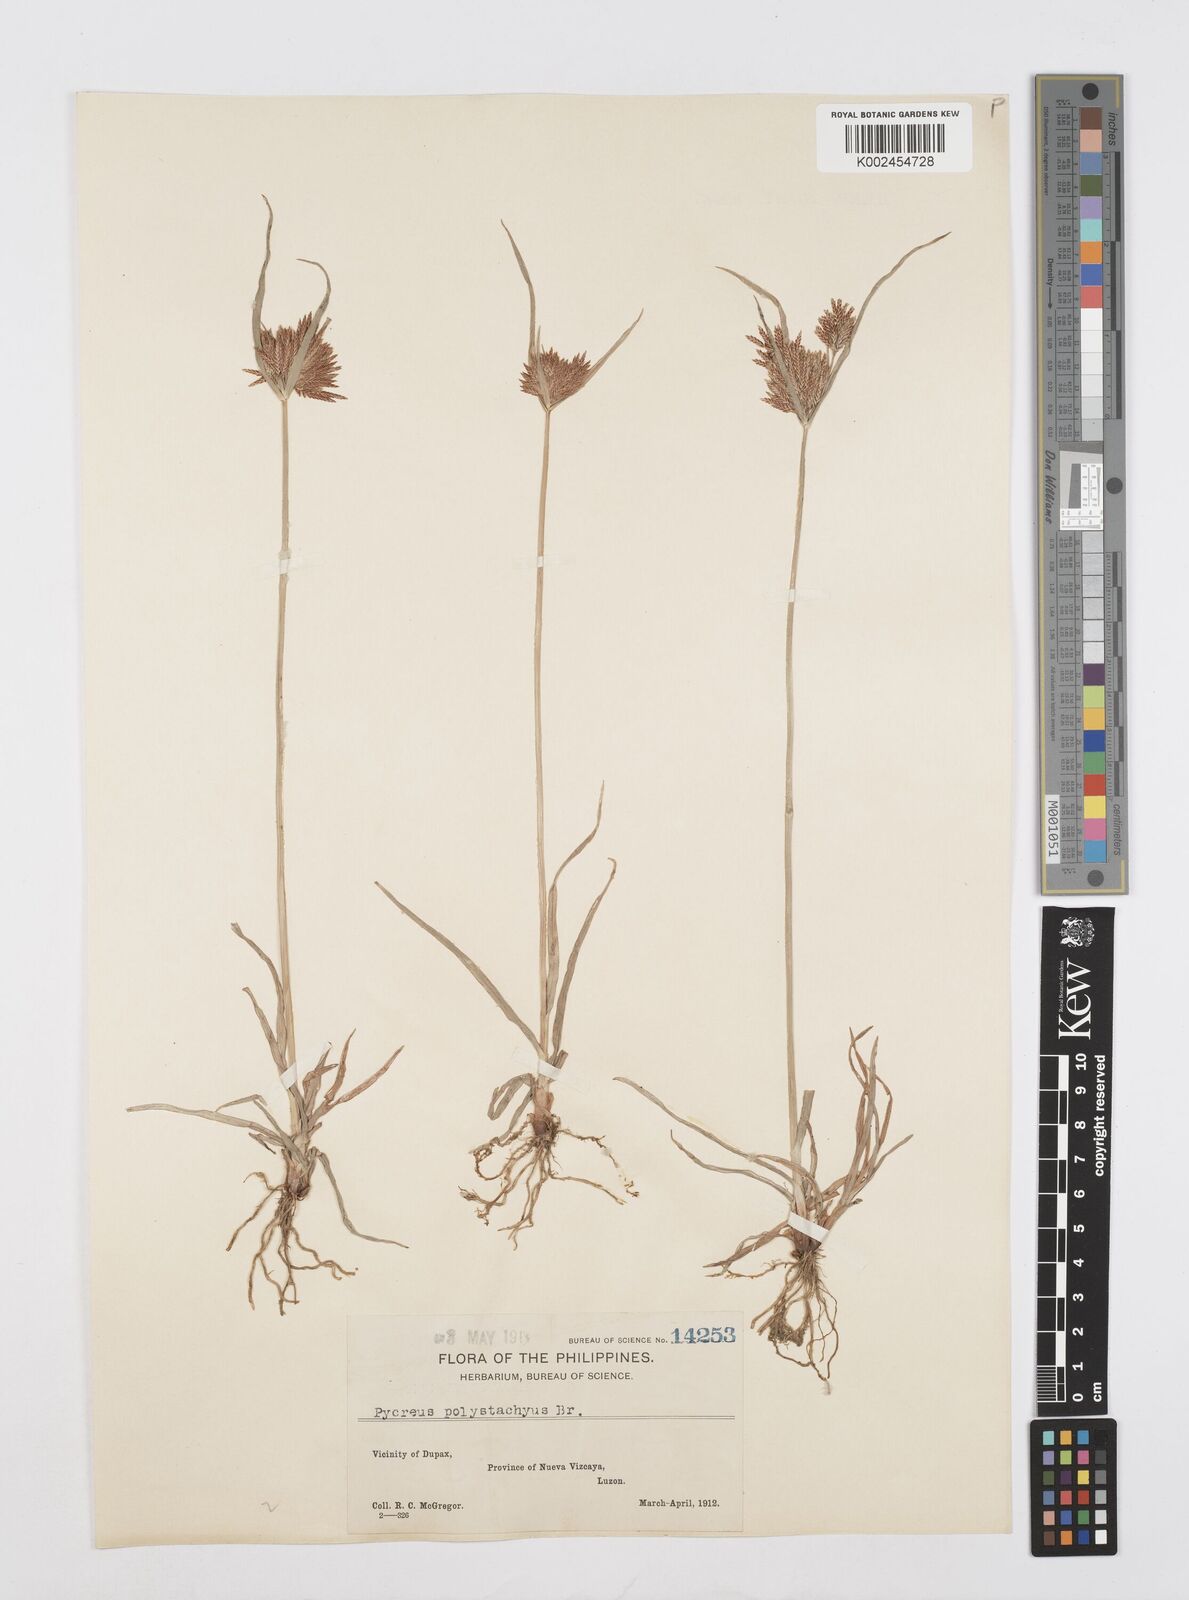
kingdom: Plantae
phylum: Tracheophyta
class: Liliopsida
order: Poales
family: Cyperaceae
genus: Cyperus
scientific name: Cyperus polystachyos
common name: Bunchy flat sedge
